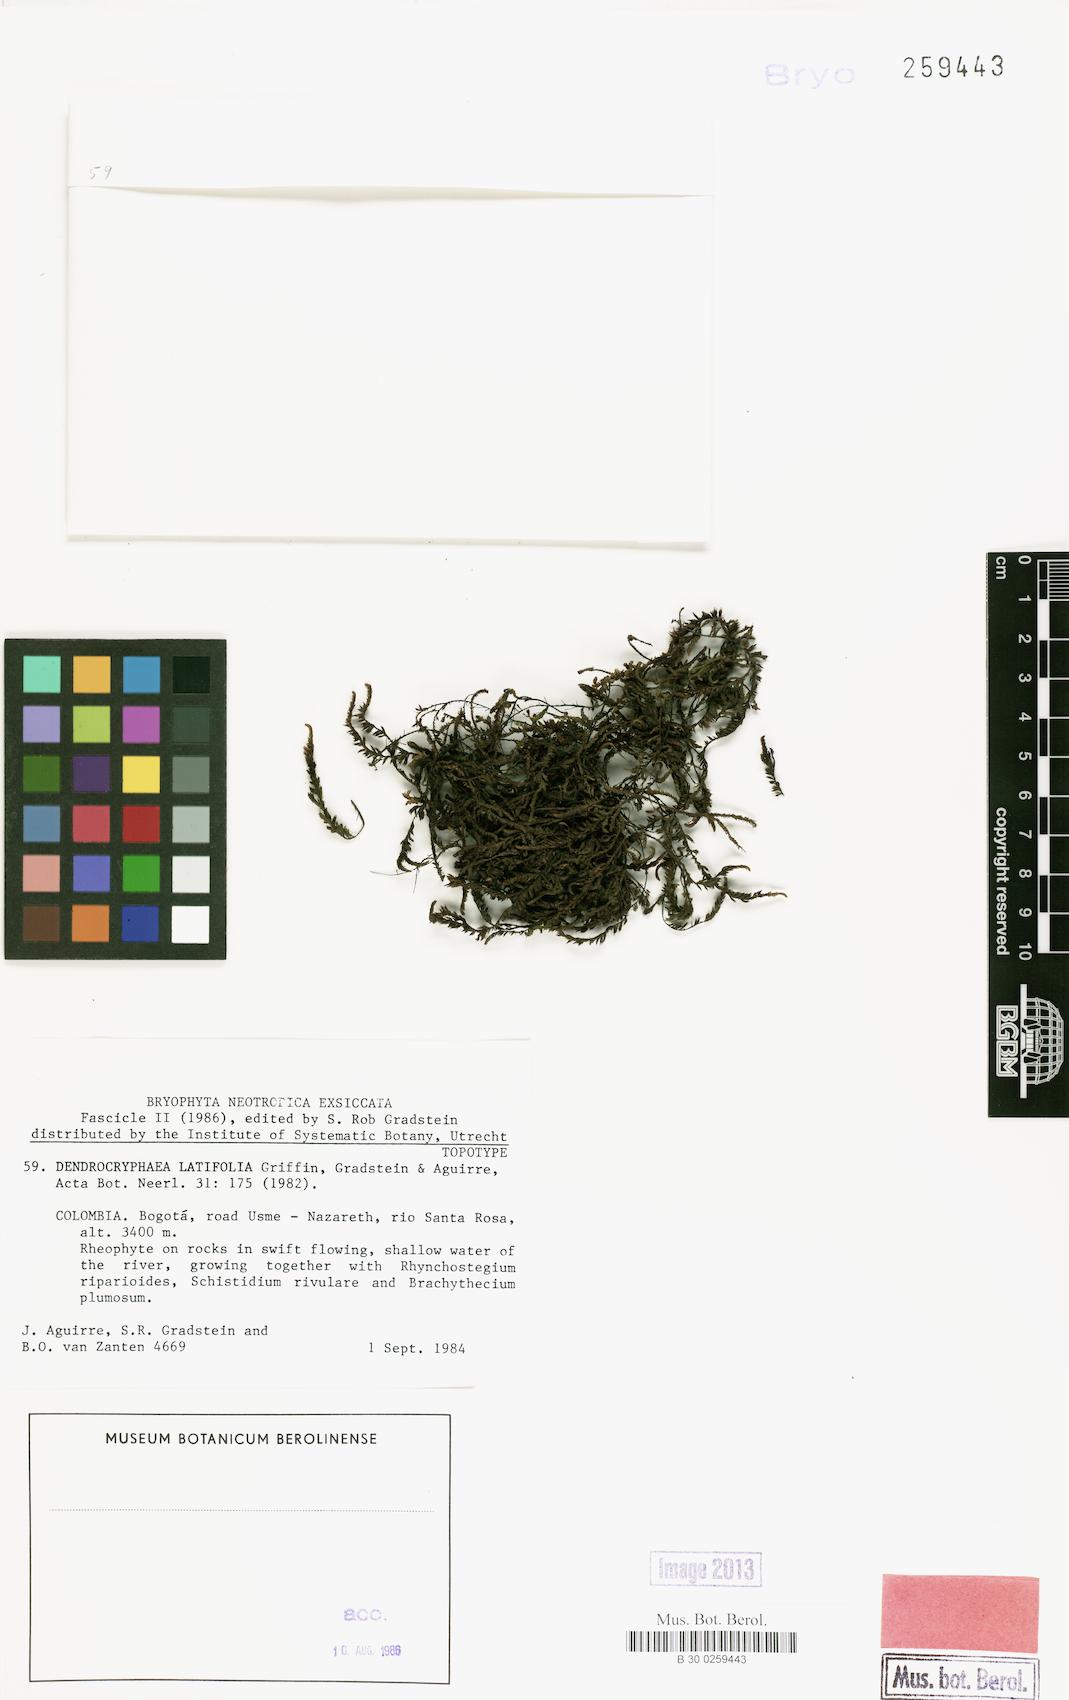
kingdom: Plantae
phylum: Bryophyta
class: Bryopsida
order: Hypnales
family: Cryphaeaceae
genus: Dendrocryphaea
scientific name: Dendrocryphaea latifolia
